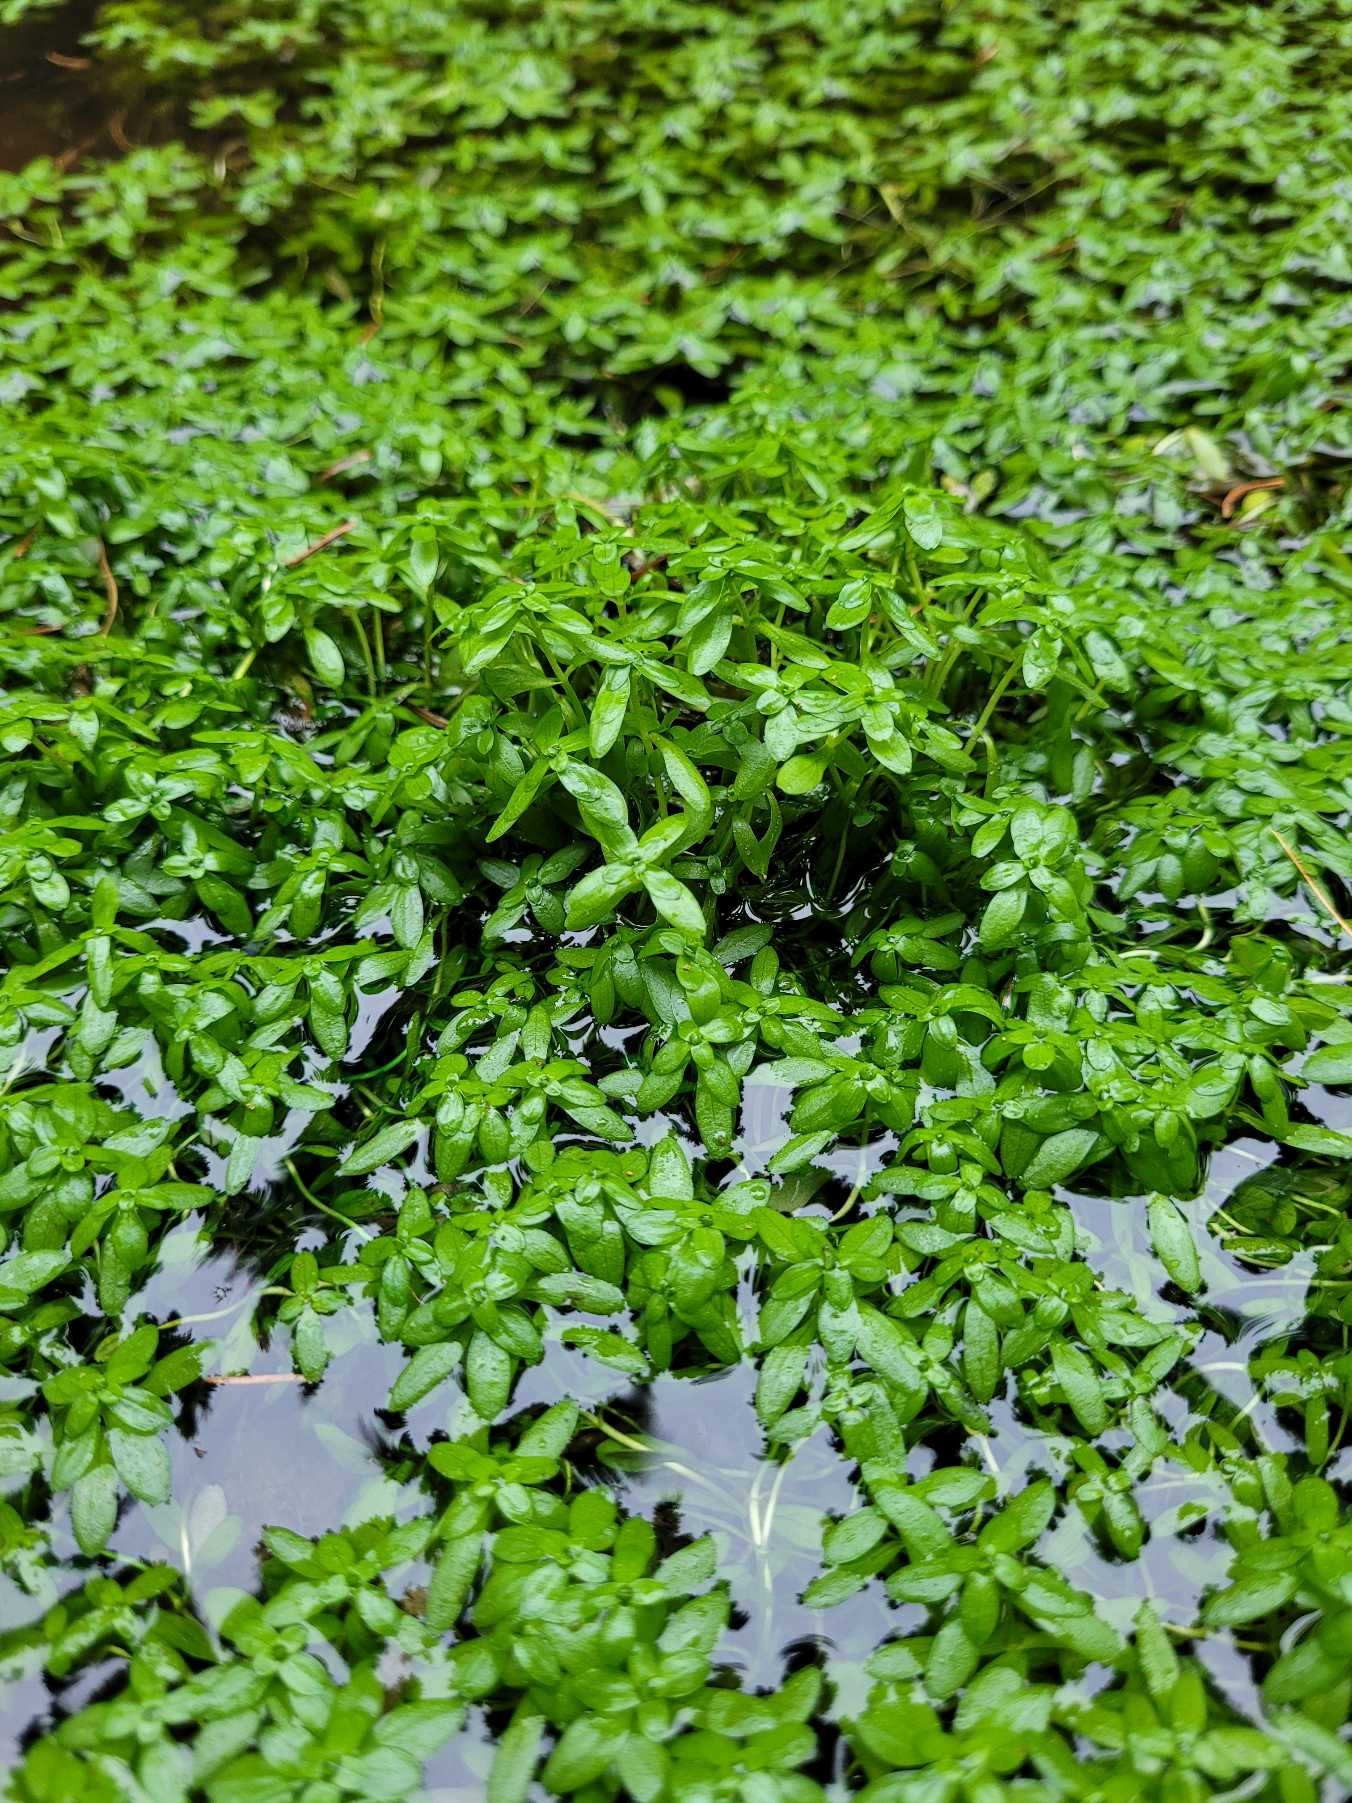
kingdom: Plantae
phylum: Tracheophyta
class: Magnoliopsida
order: Lamiales
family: Plantaginaceae
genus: Callitriche
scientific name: Callitriche
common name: Vandstjerneslægten
